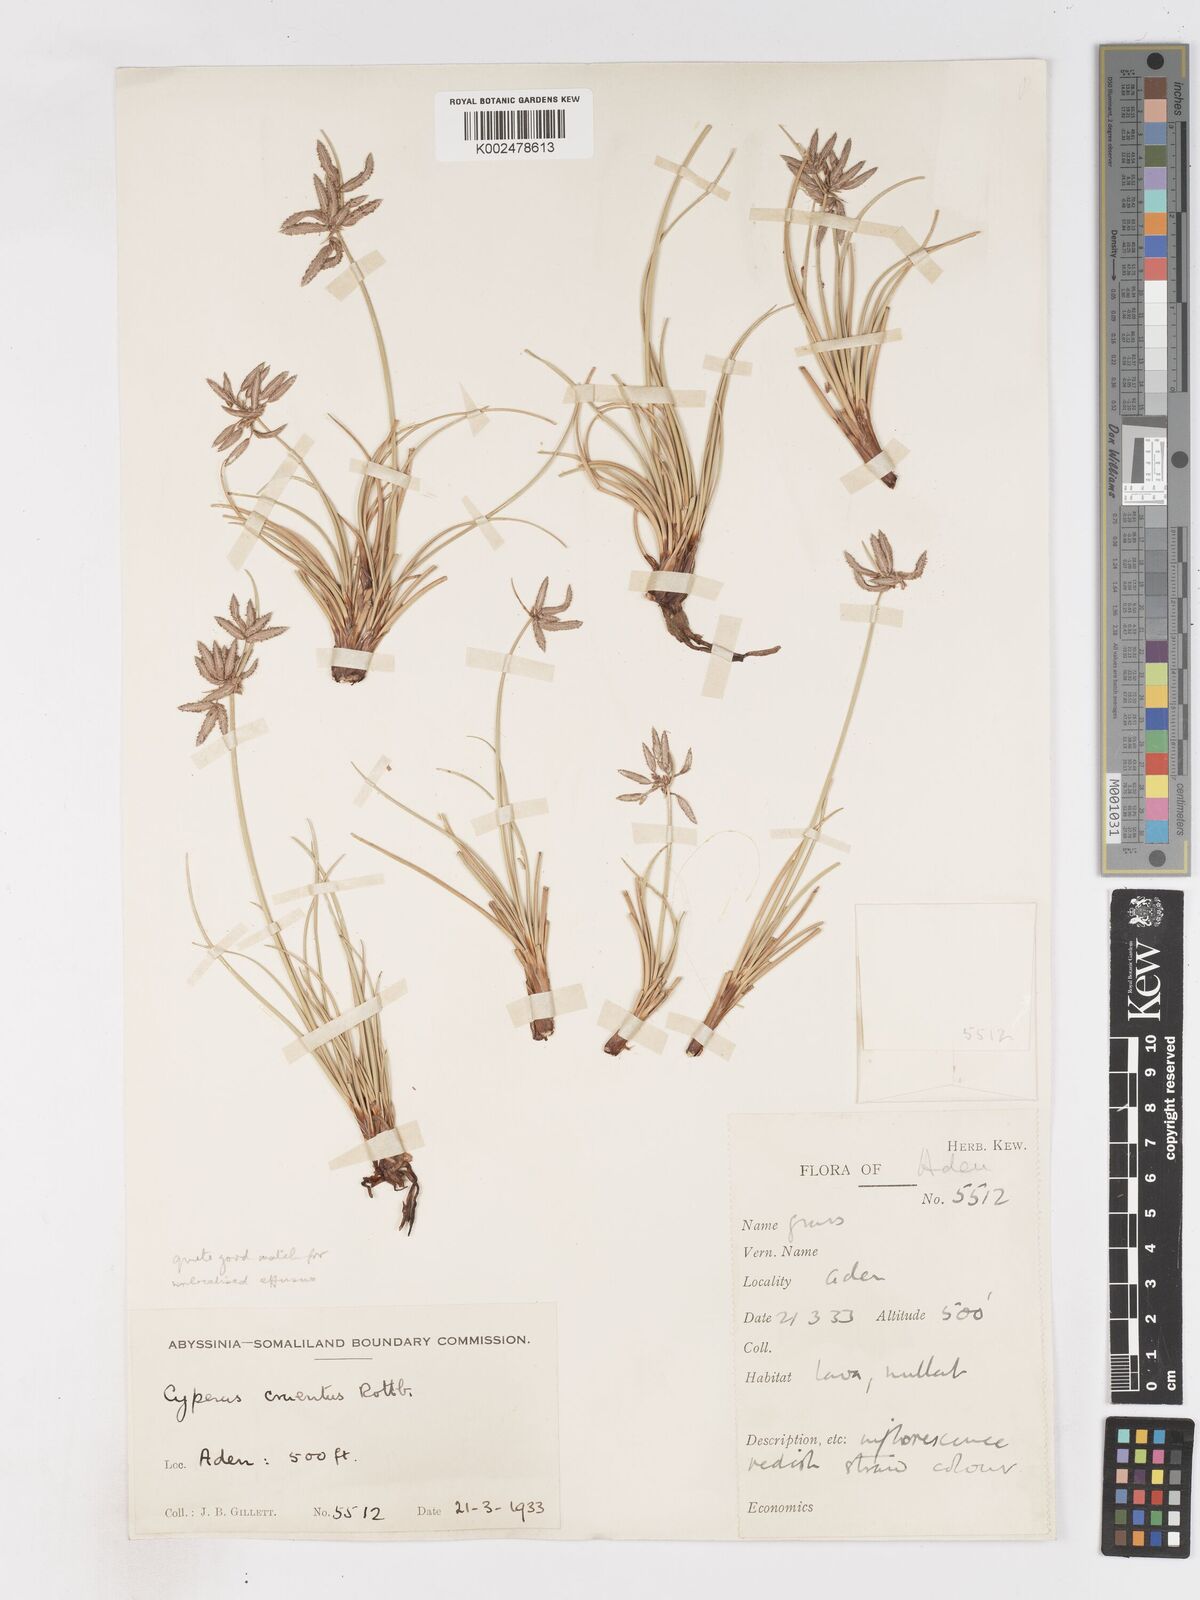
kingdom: Plantae
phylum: Tracheophyta
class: Liliopsida
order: Poales
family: Cyperaceae
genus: Cyperus
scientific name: Cyperus conglomeratus
